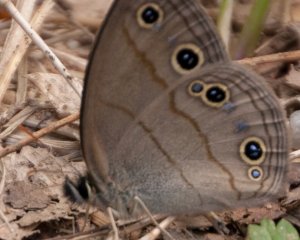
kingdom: Animalia
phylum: Arthropoda
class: Insecta
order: Lepidoptera
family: Nymphalidae
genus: Euptychia
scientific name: Euptychia cymela
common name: Little Wood Satyr
